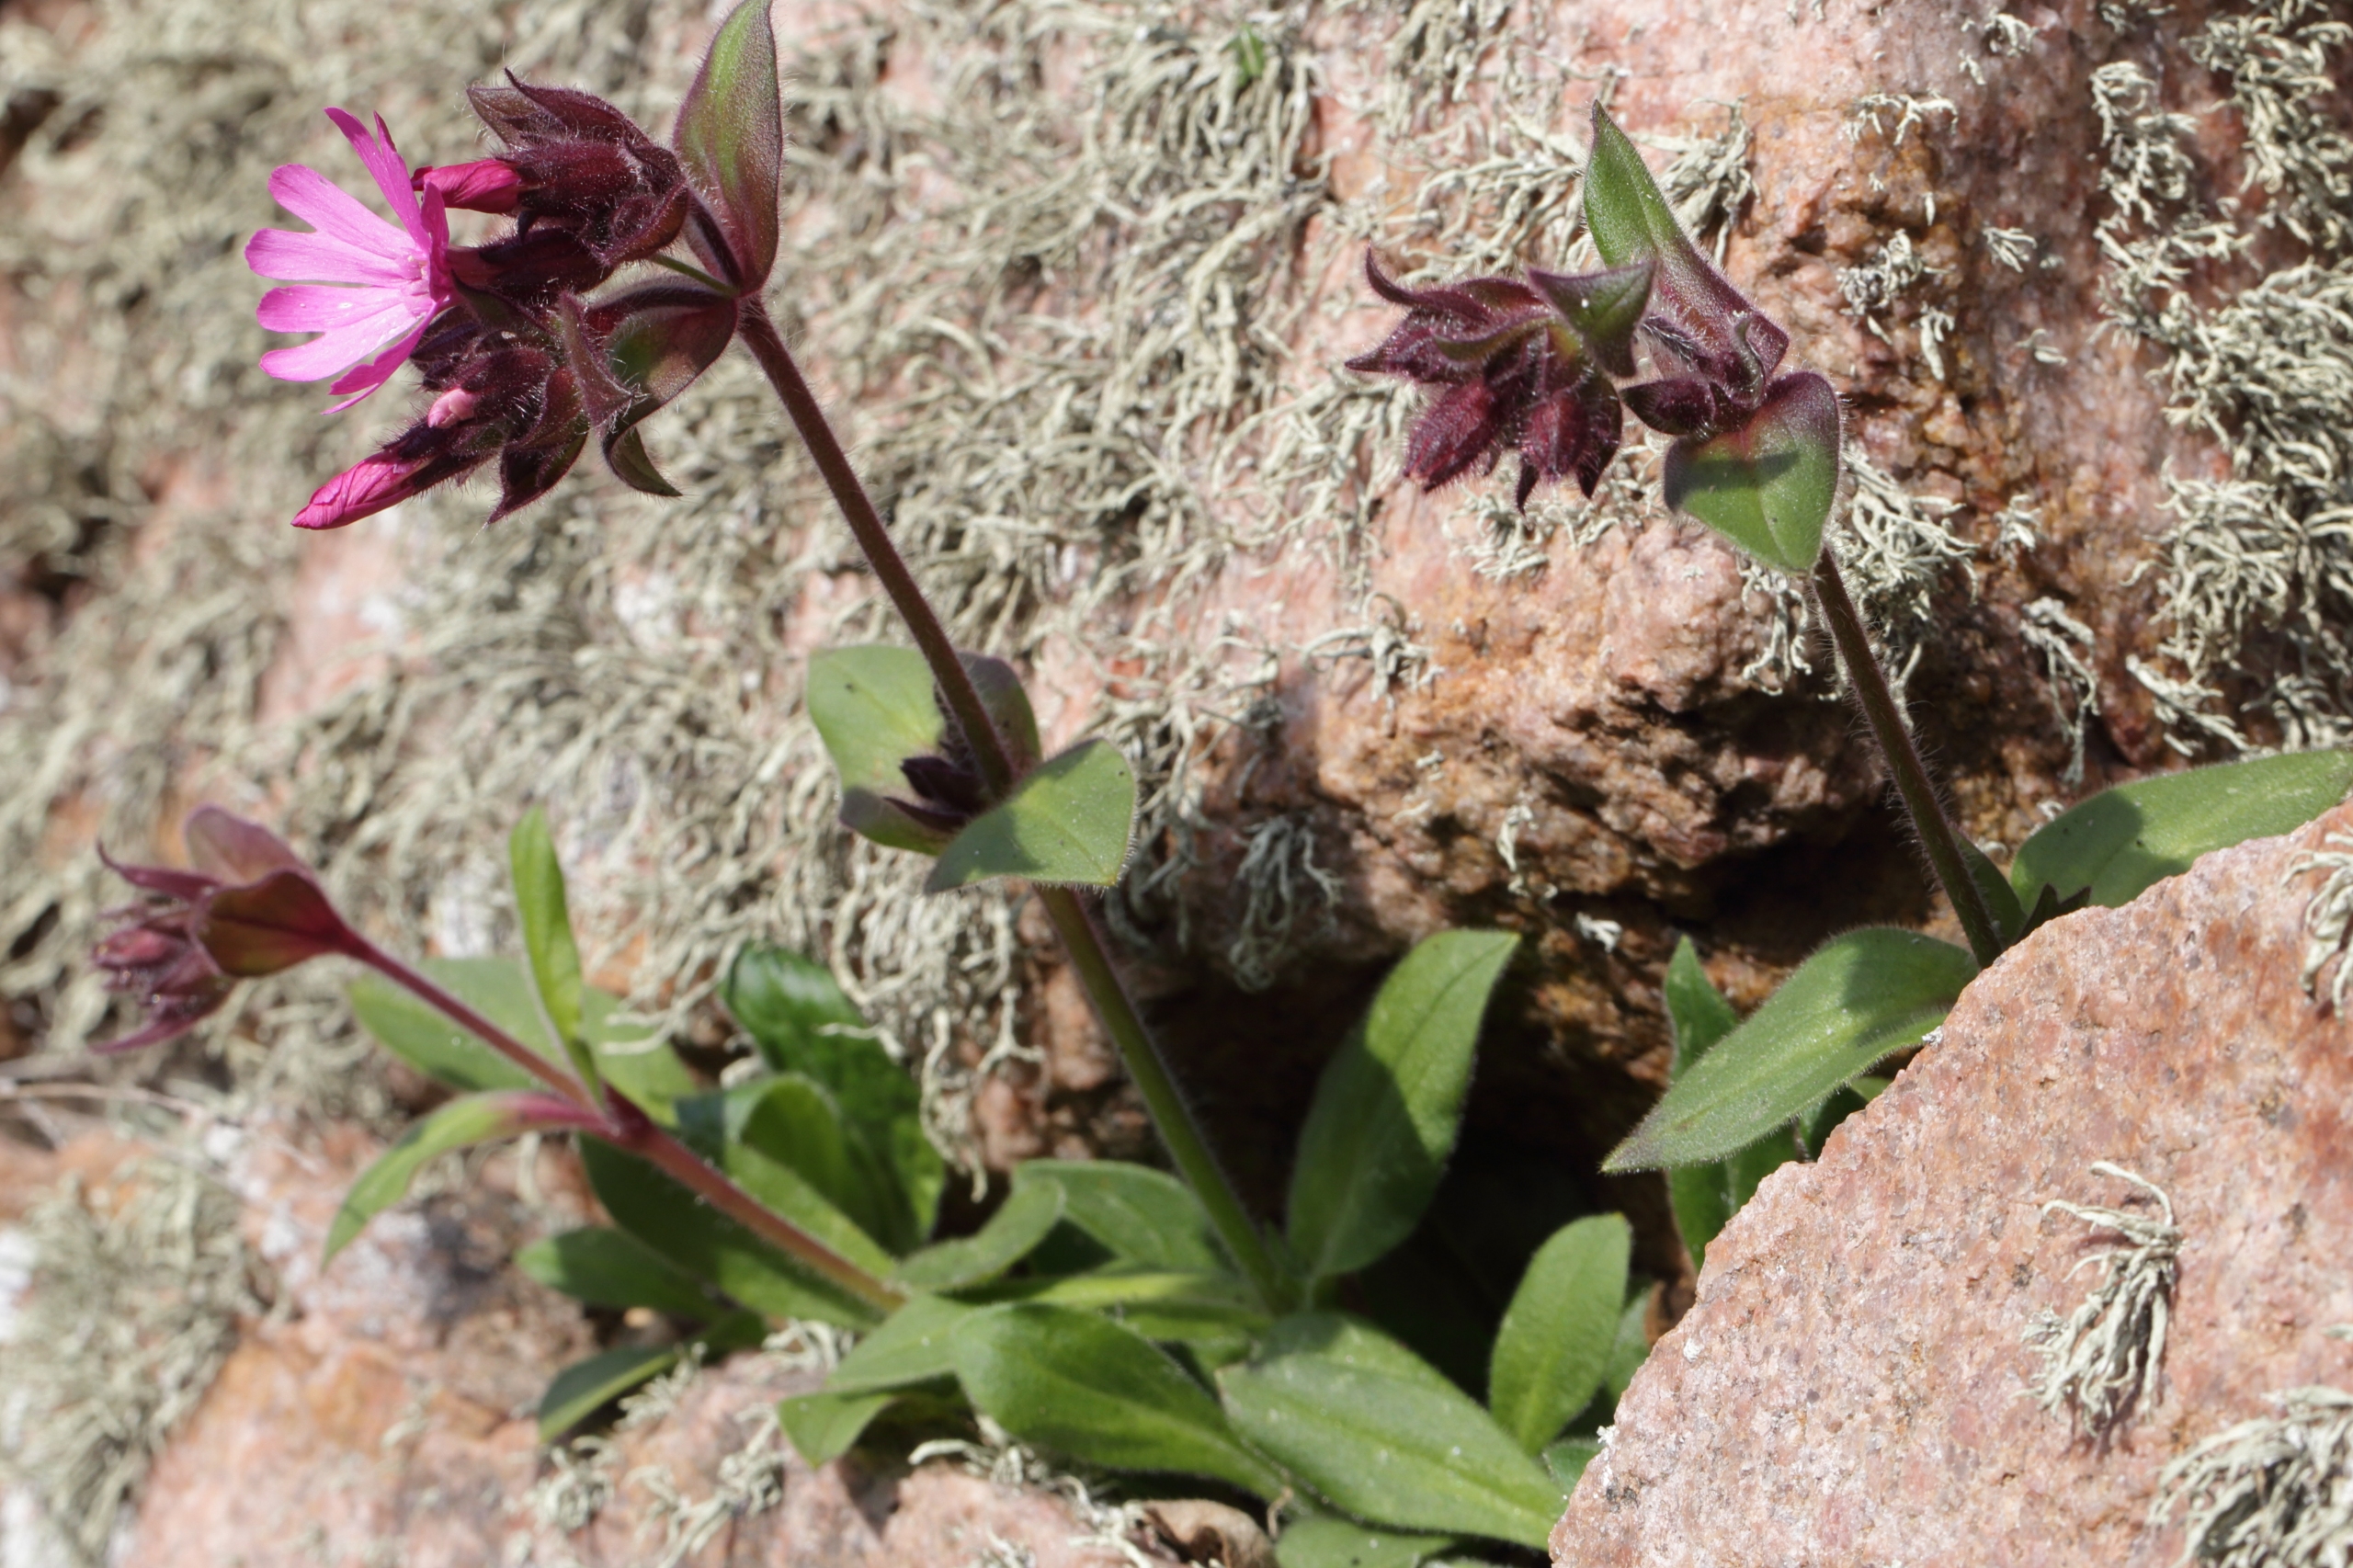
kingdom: Plantae
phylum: Tracheophyta
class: Magnoliopsida
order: Caryophyllales
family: Caryophyllaceae
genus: Silene
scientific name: Silene dioica
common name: Dagpragtstjerne
